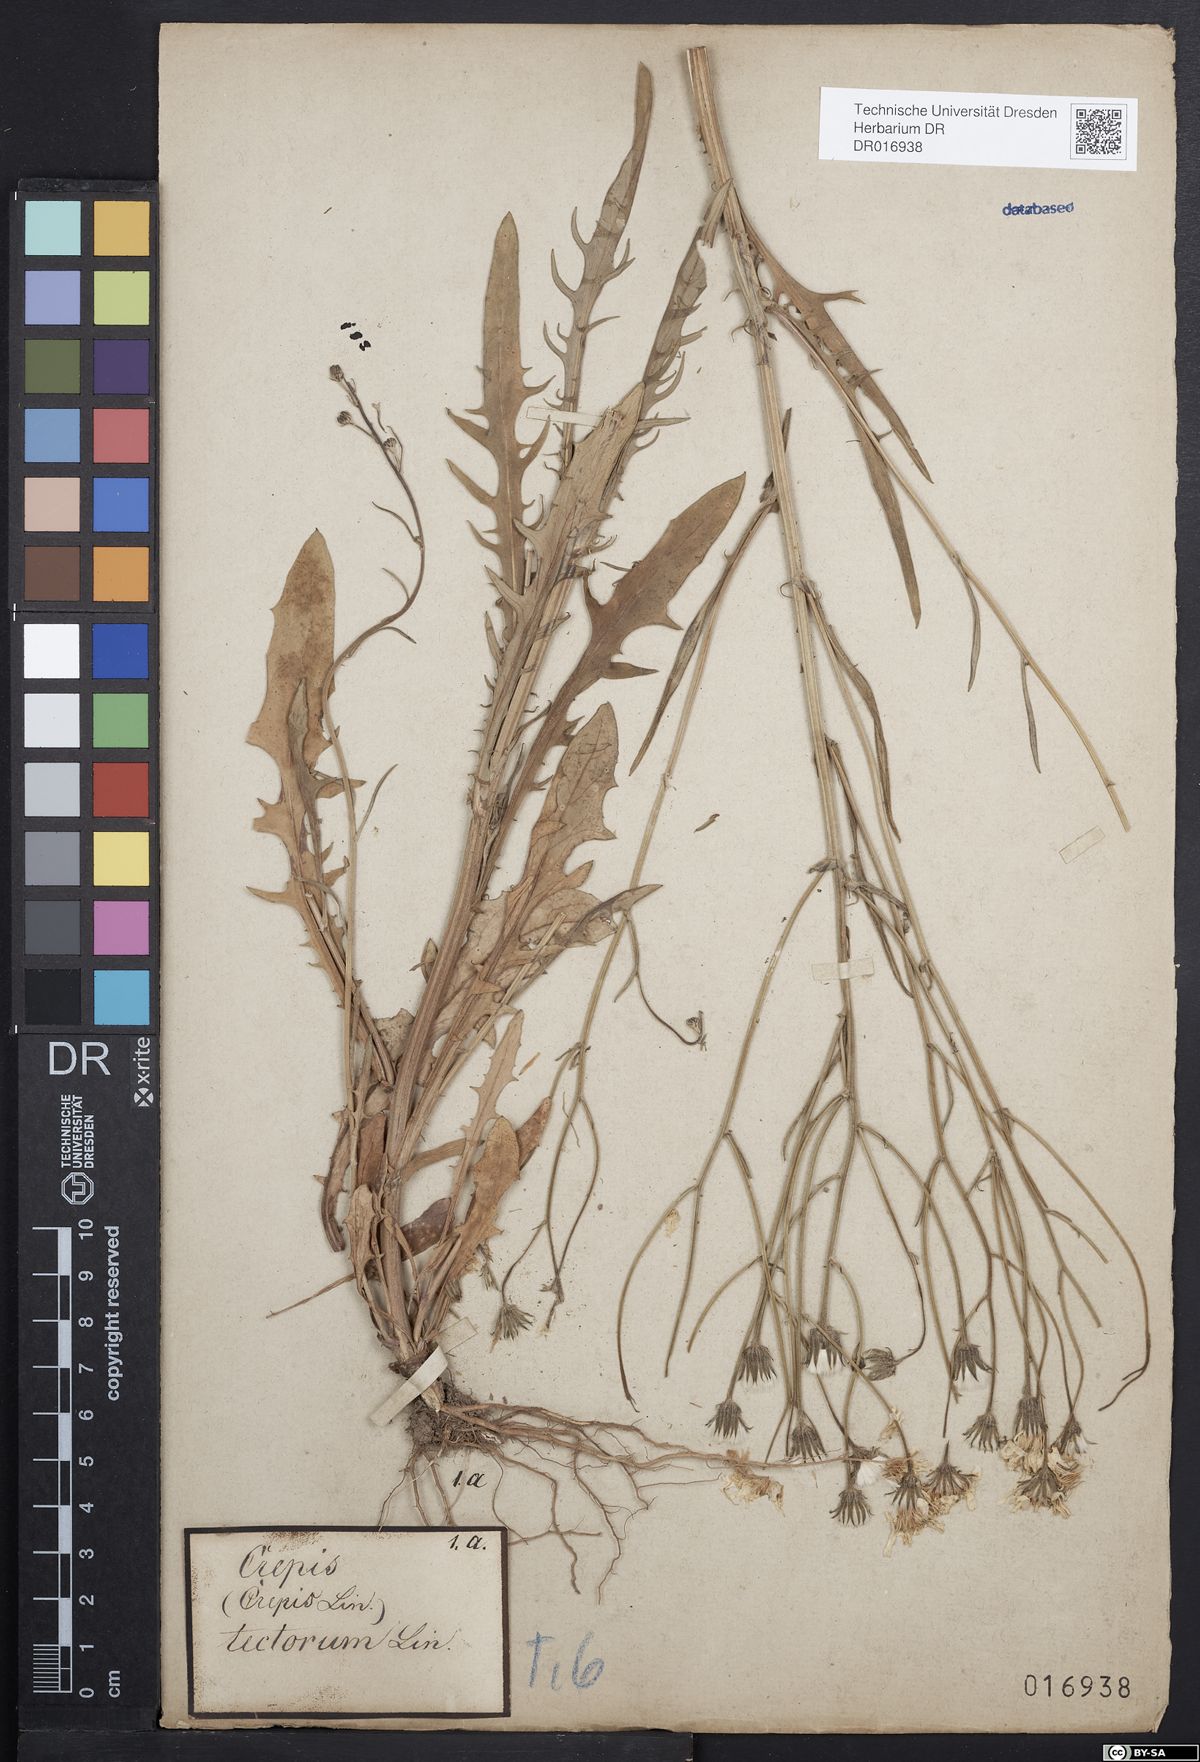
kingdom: Plantae
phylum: Tracheophyta
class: Magnoliopsida
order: Asterales
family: Asteraceae
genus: Crepis
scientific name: Crepis tectorum
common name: Narrow-leaved hawk's-beard
